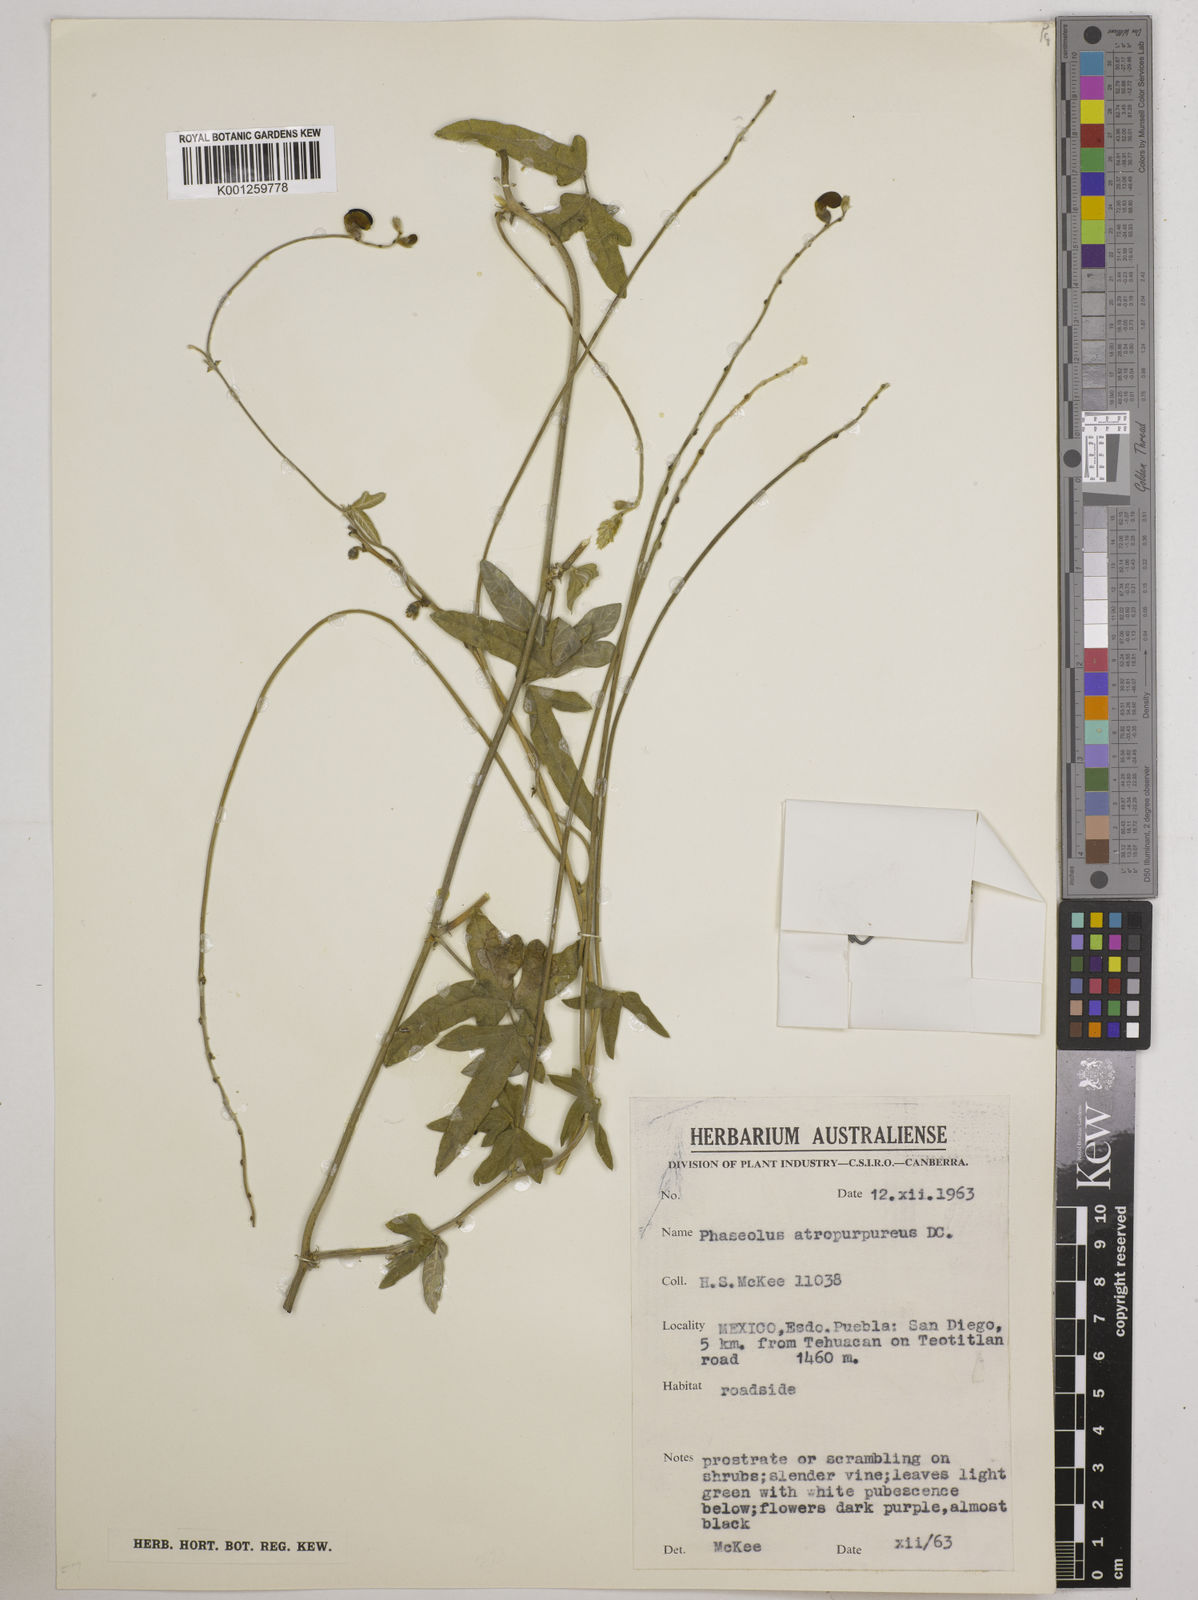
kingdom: Plantae
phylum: Tracheophyta
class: Magnoliopsida
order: Fabales
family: Fabaceae
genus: Macroptilium
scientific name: Macroptilium atropurpureum
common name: Purple bushbean
